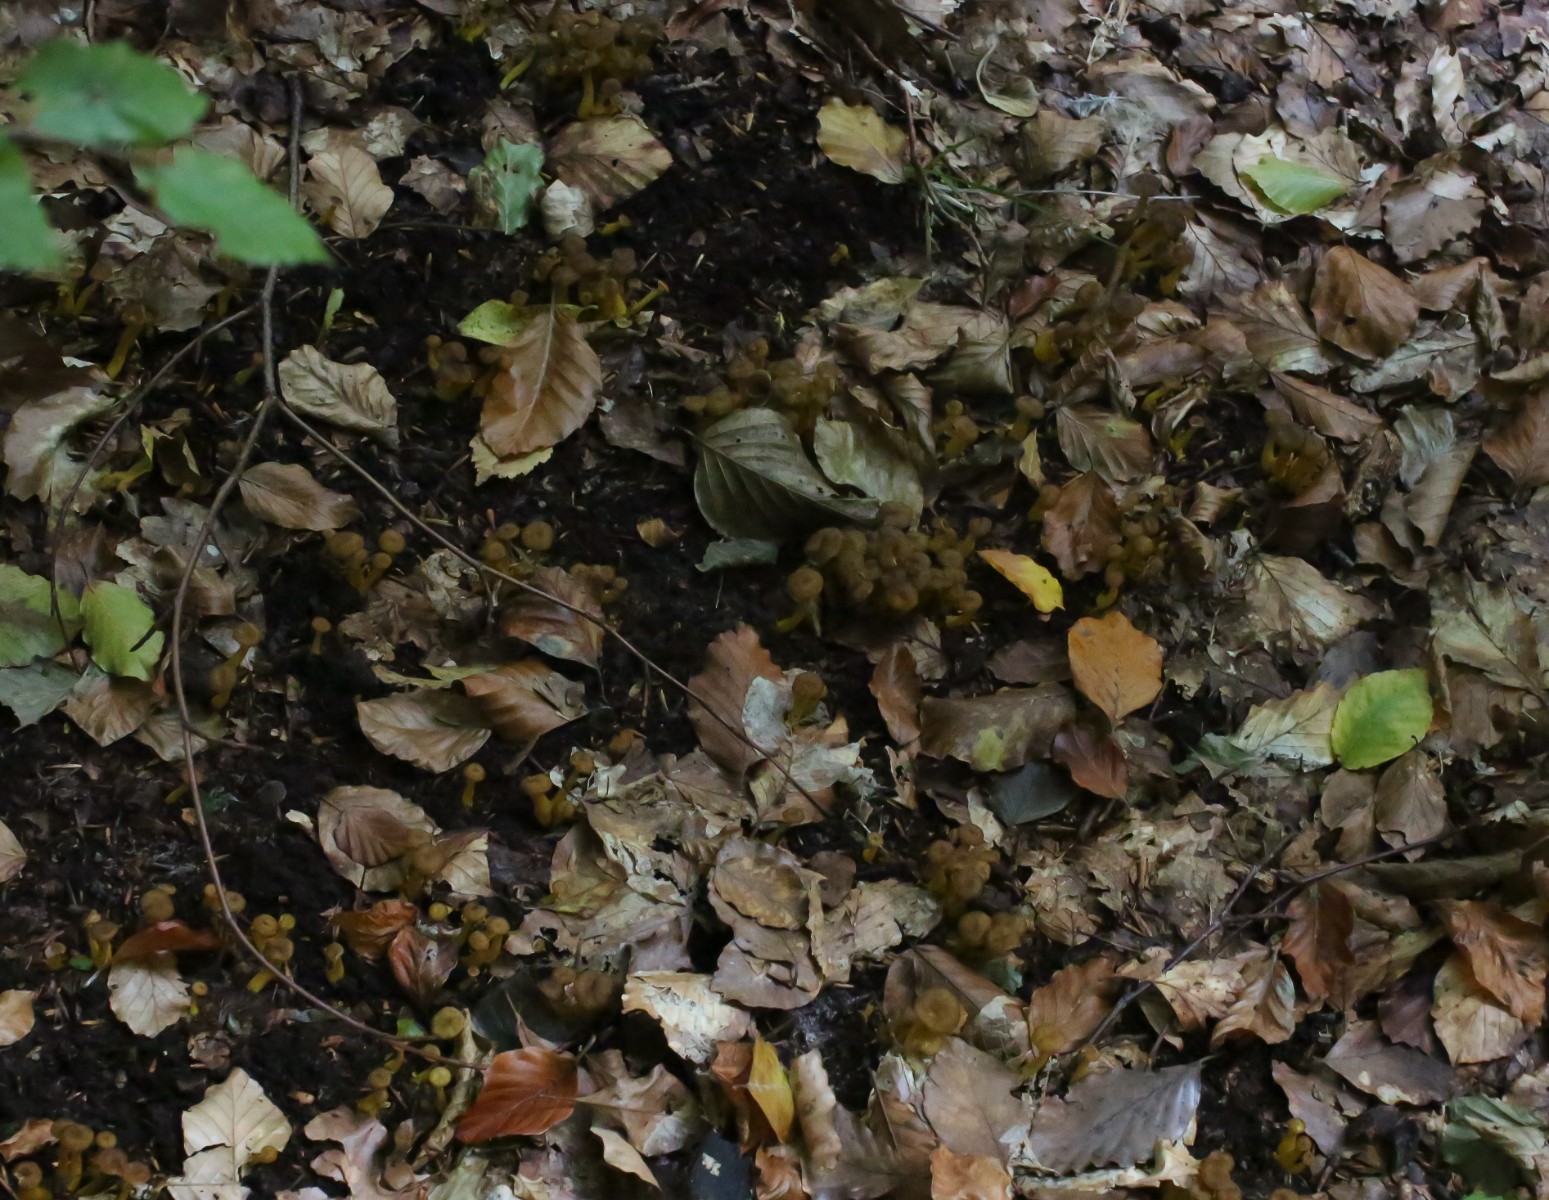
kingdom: Fungi
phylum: Basidiomycota
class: Agaricomycetes
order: Cantharellales
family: Hydnaceae
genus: Craterellus
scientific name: Craterellus tubaeformis
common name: tragt-kantarel
